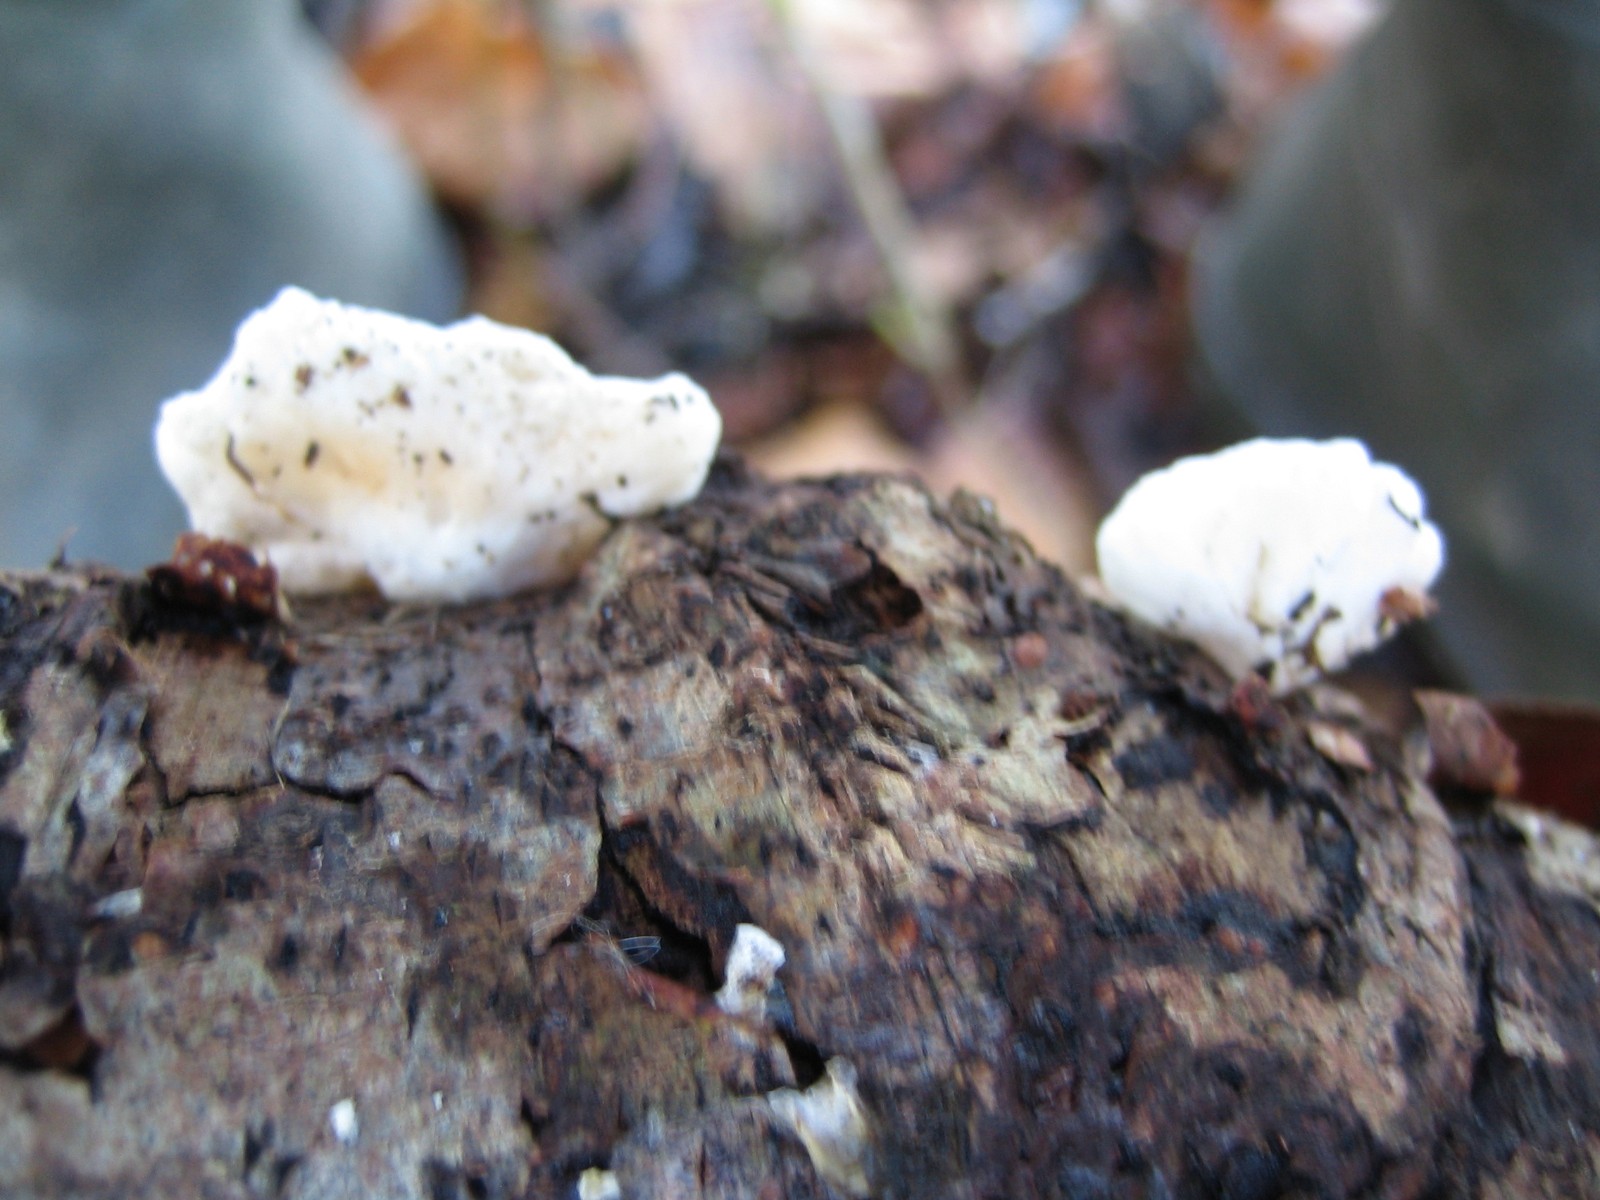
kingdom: Fungi
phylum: Basidiomycota
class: Agaricomycetes
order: Agaricales
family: Crepidotaceae
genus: Crepidotus
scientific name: Crepidotus
